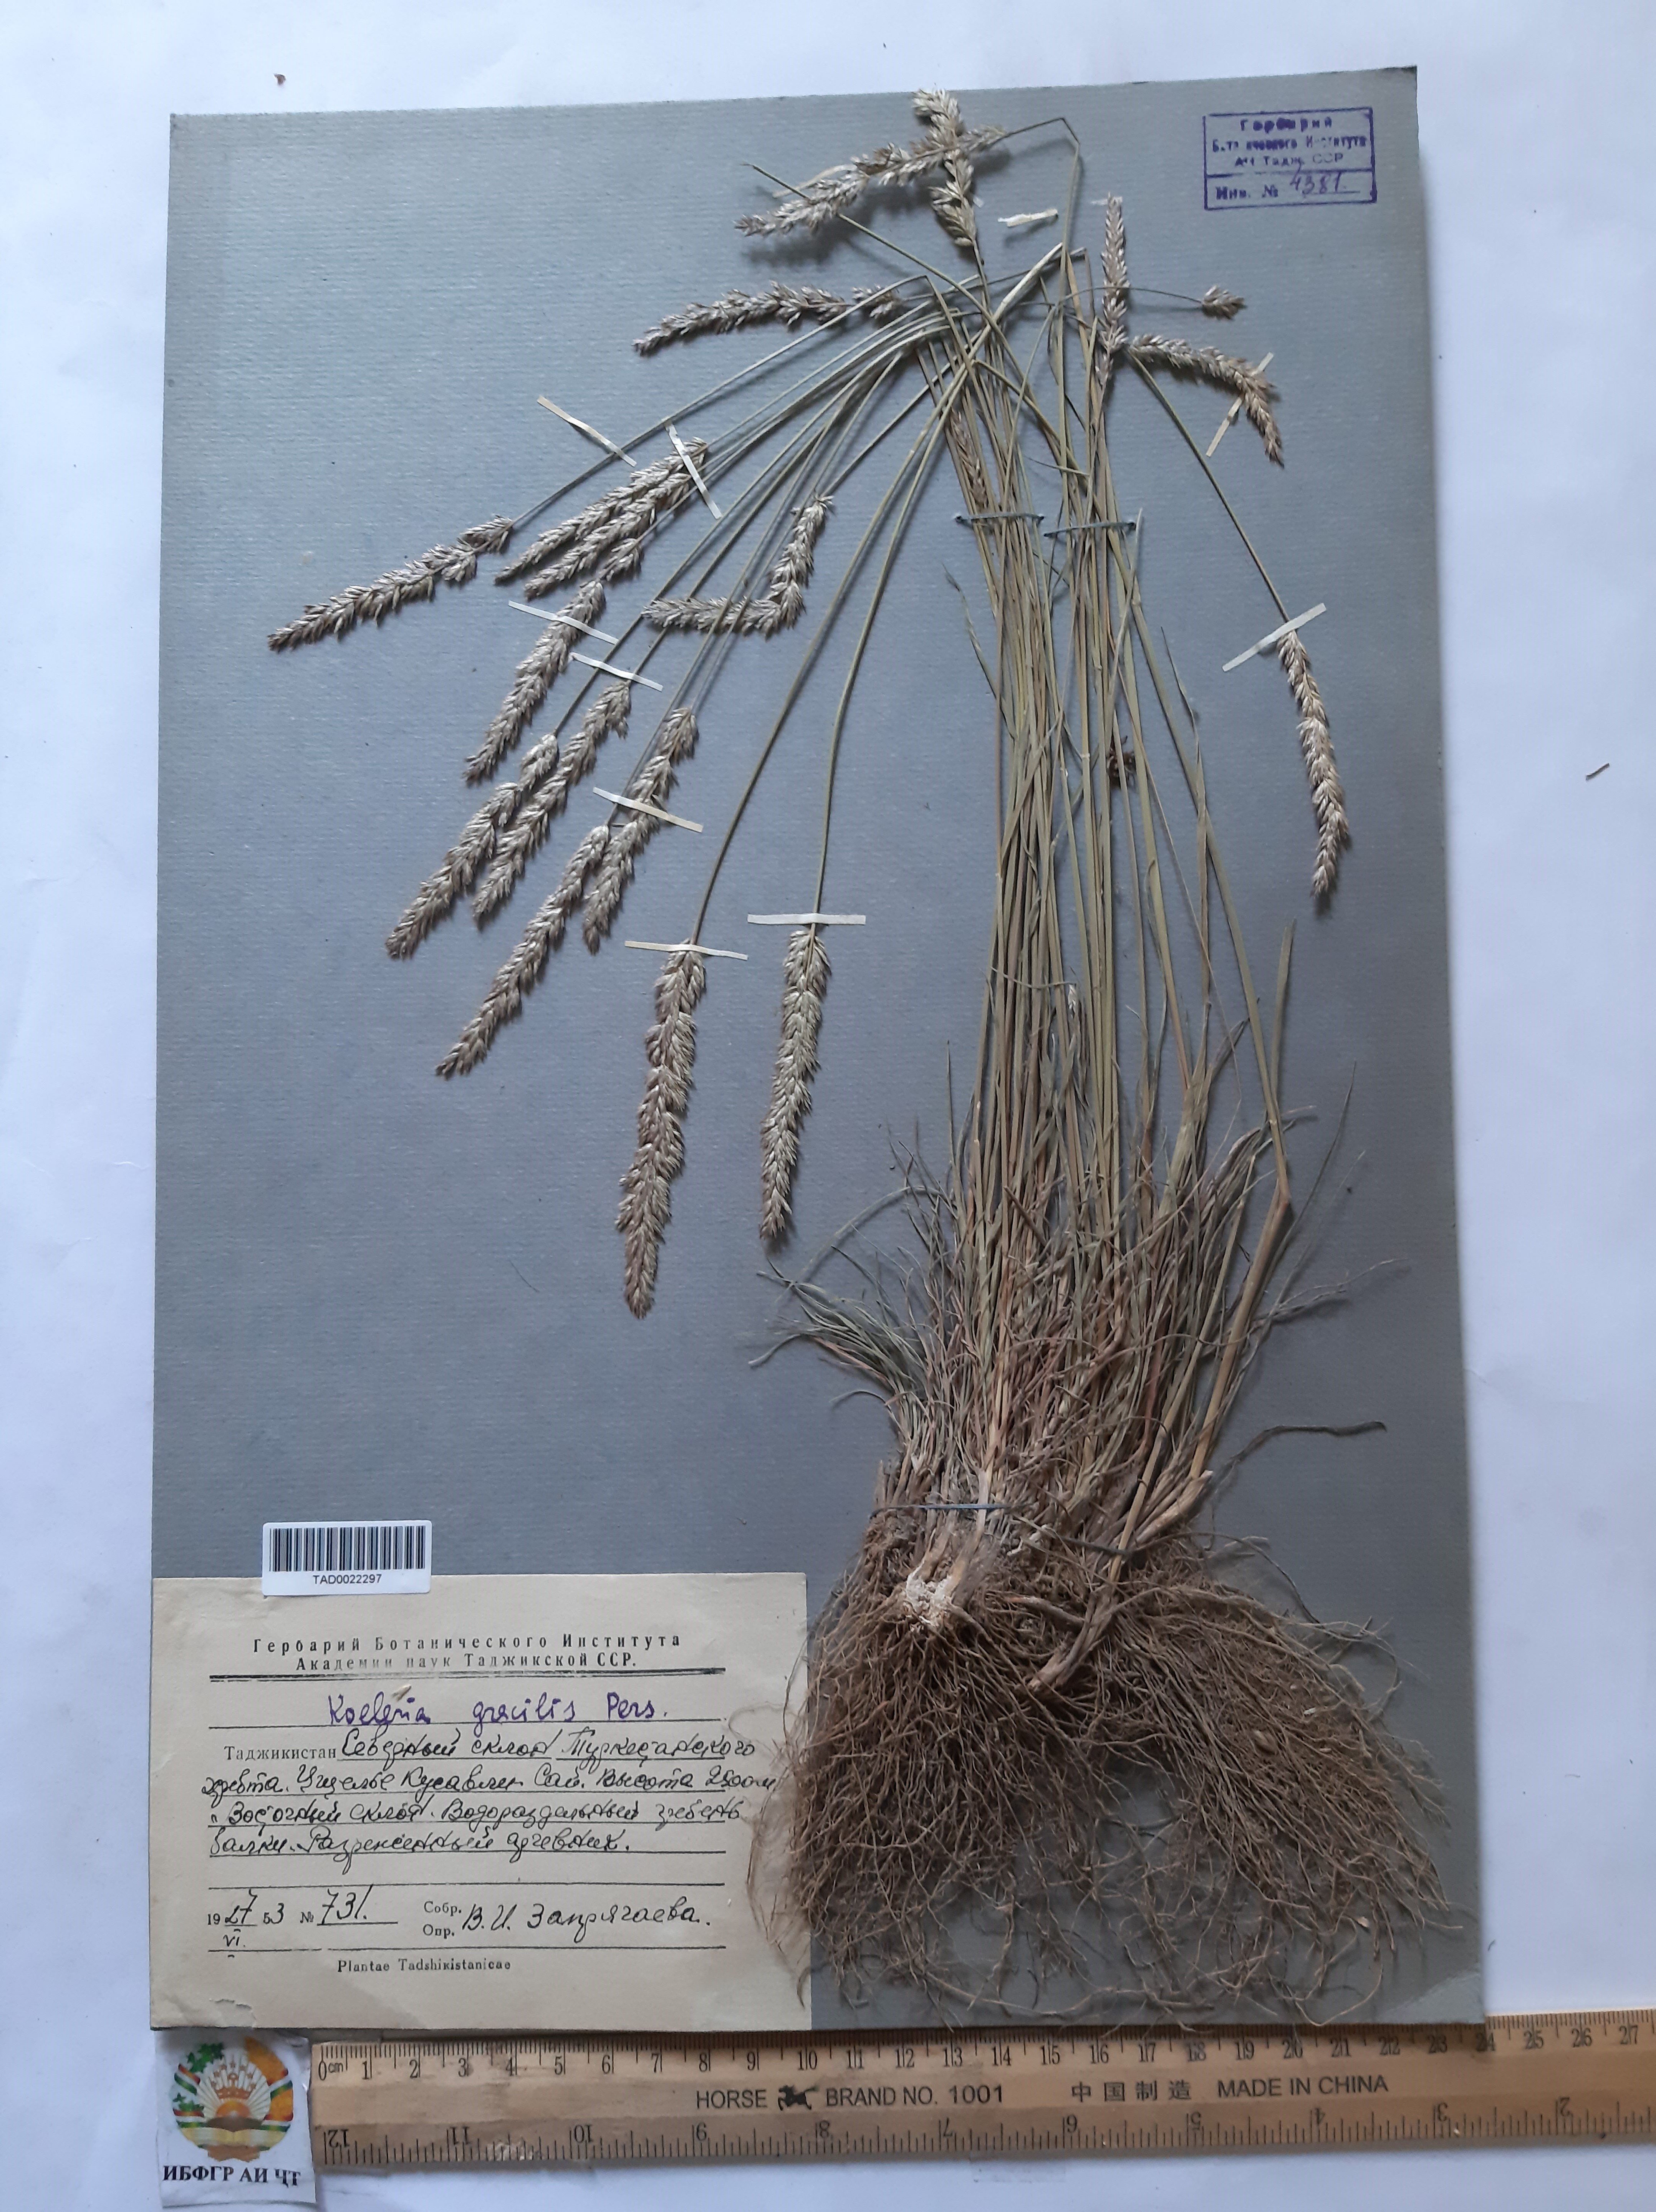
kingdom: Plantae
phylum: Tracheophyta
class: Liliopsida
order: Poales
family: Poaceae
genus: Koeleria
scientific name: Koeleria macrantha
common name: Crested hair-grass
